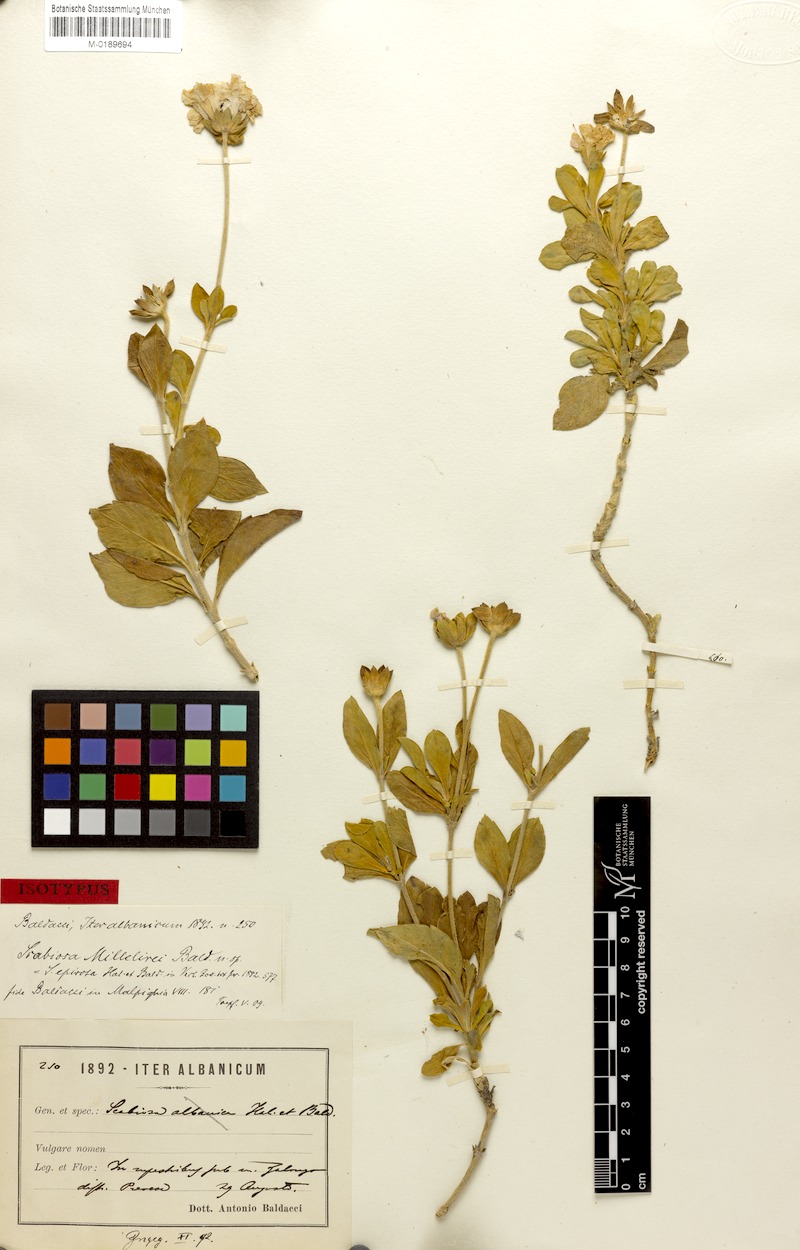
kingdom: Plantae
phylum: Tracheophyta
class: Magnoliopsida
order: Dipsacales
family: Caprifoliaceae
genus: Lomelosia
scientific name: Lomelosia epirota
